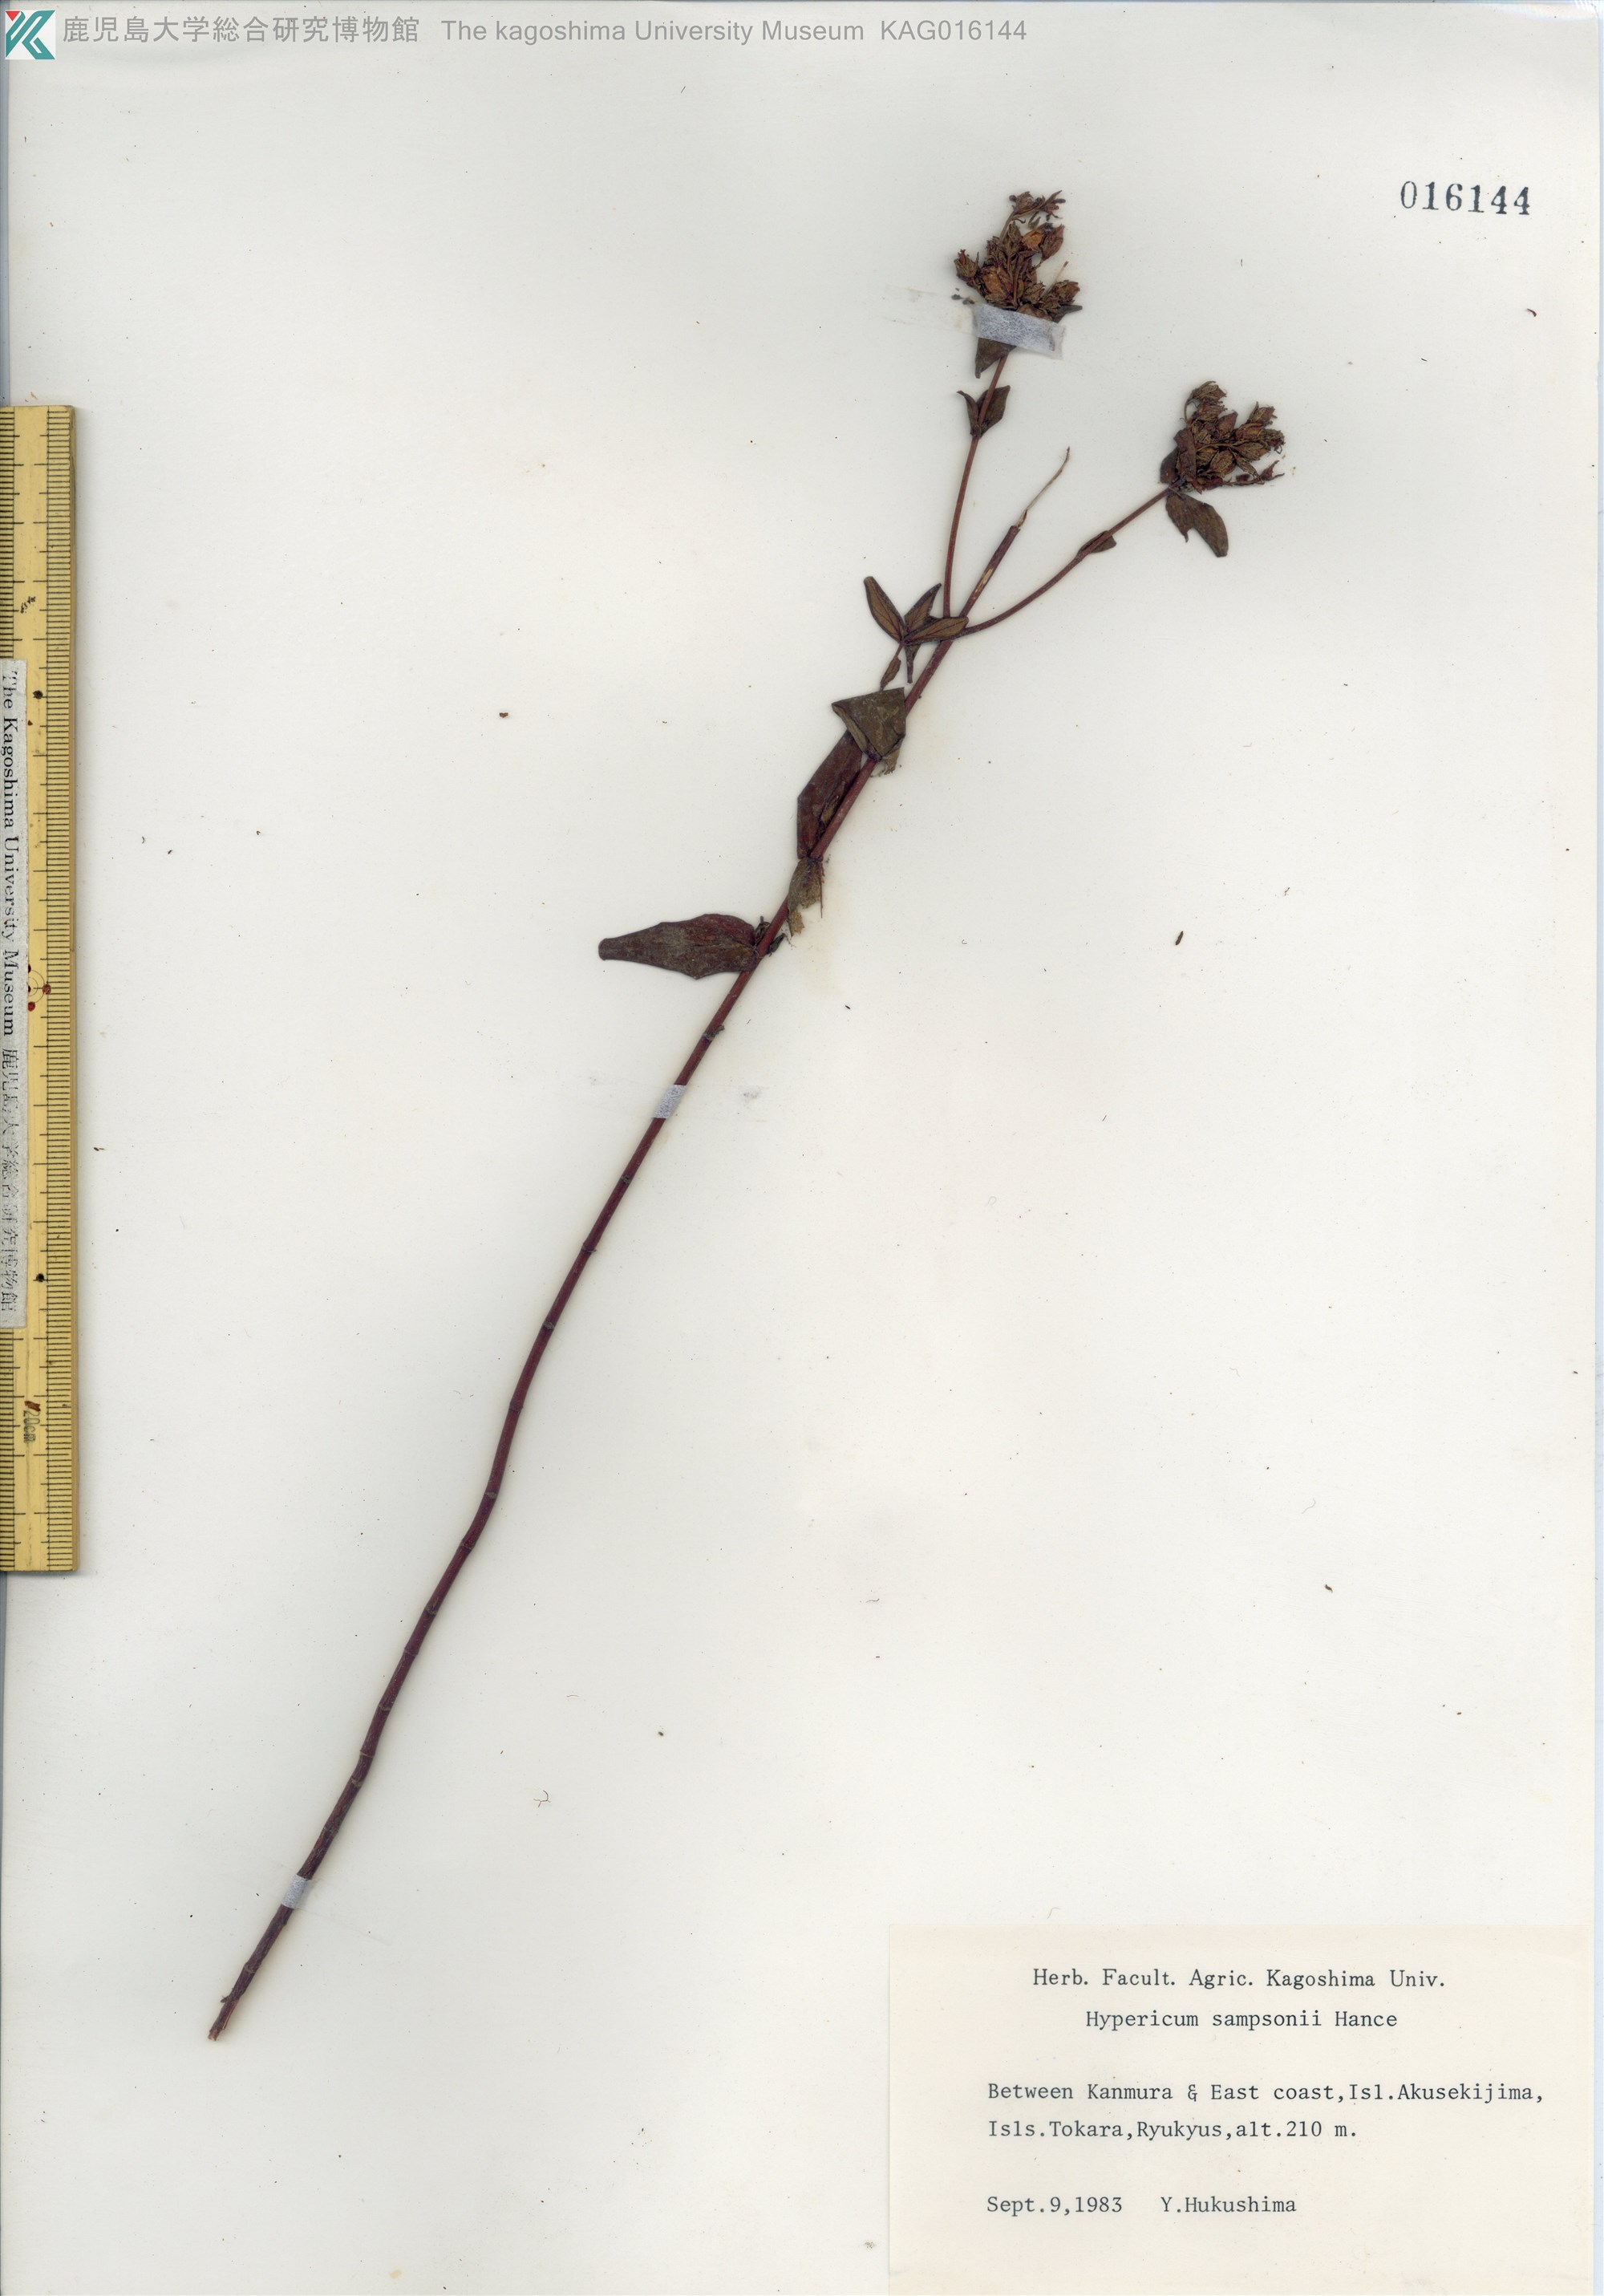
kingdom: Plantae
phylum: Tracheophyta
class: Magnoliopsida
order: Malpighiales
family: Hypericaceae
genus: Hypericum
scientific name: Hypericum sampsonii
